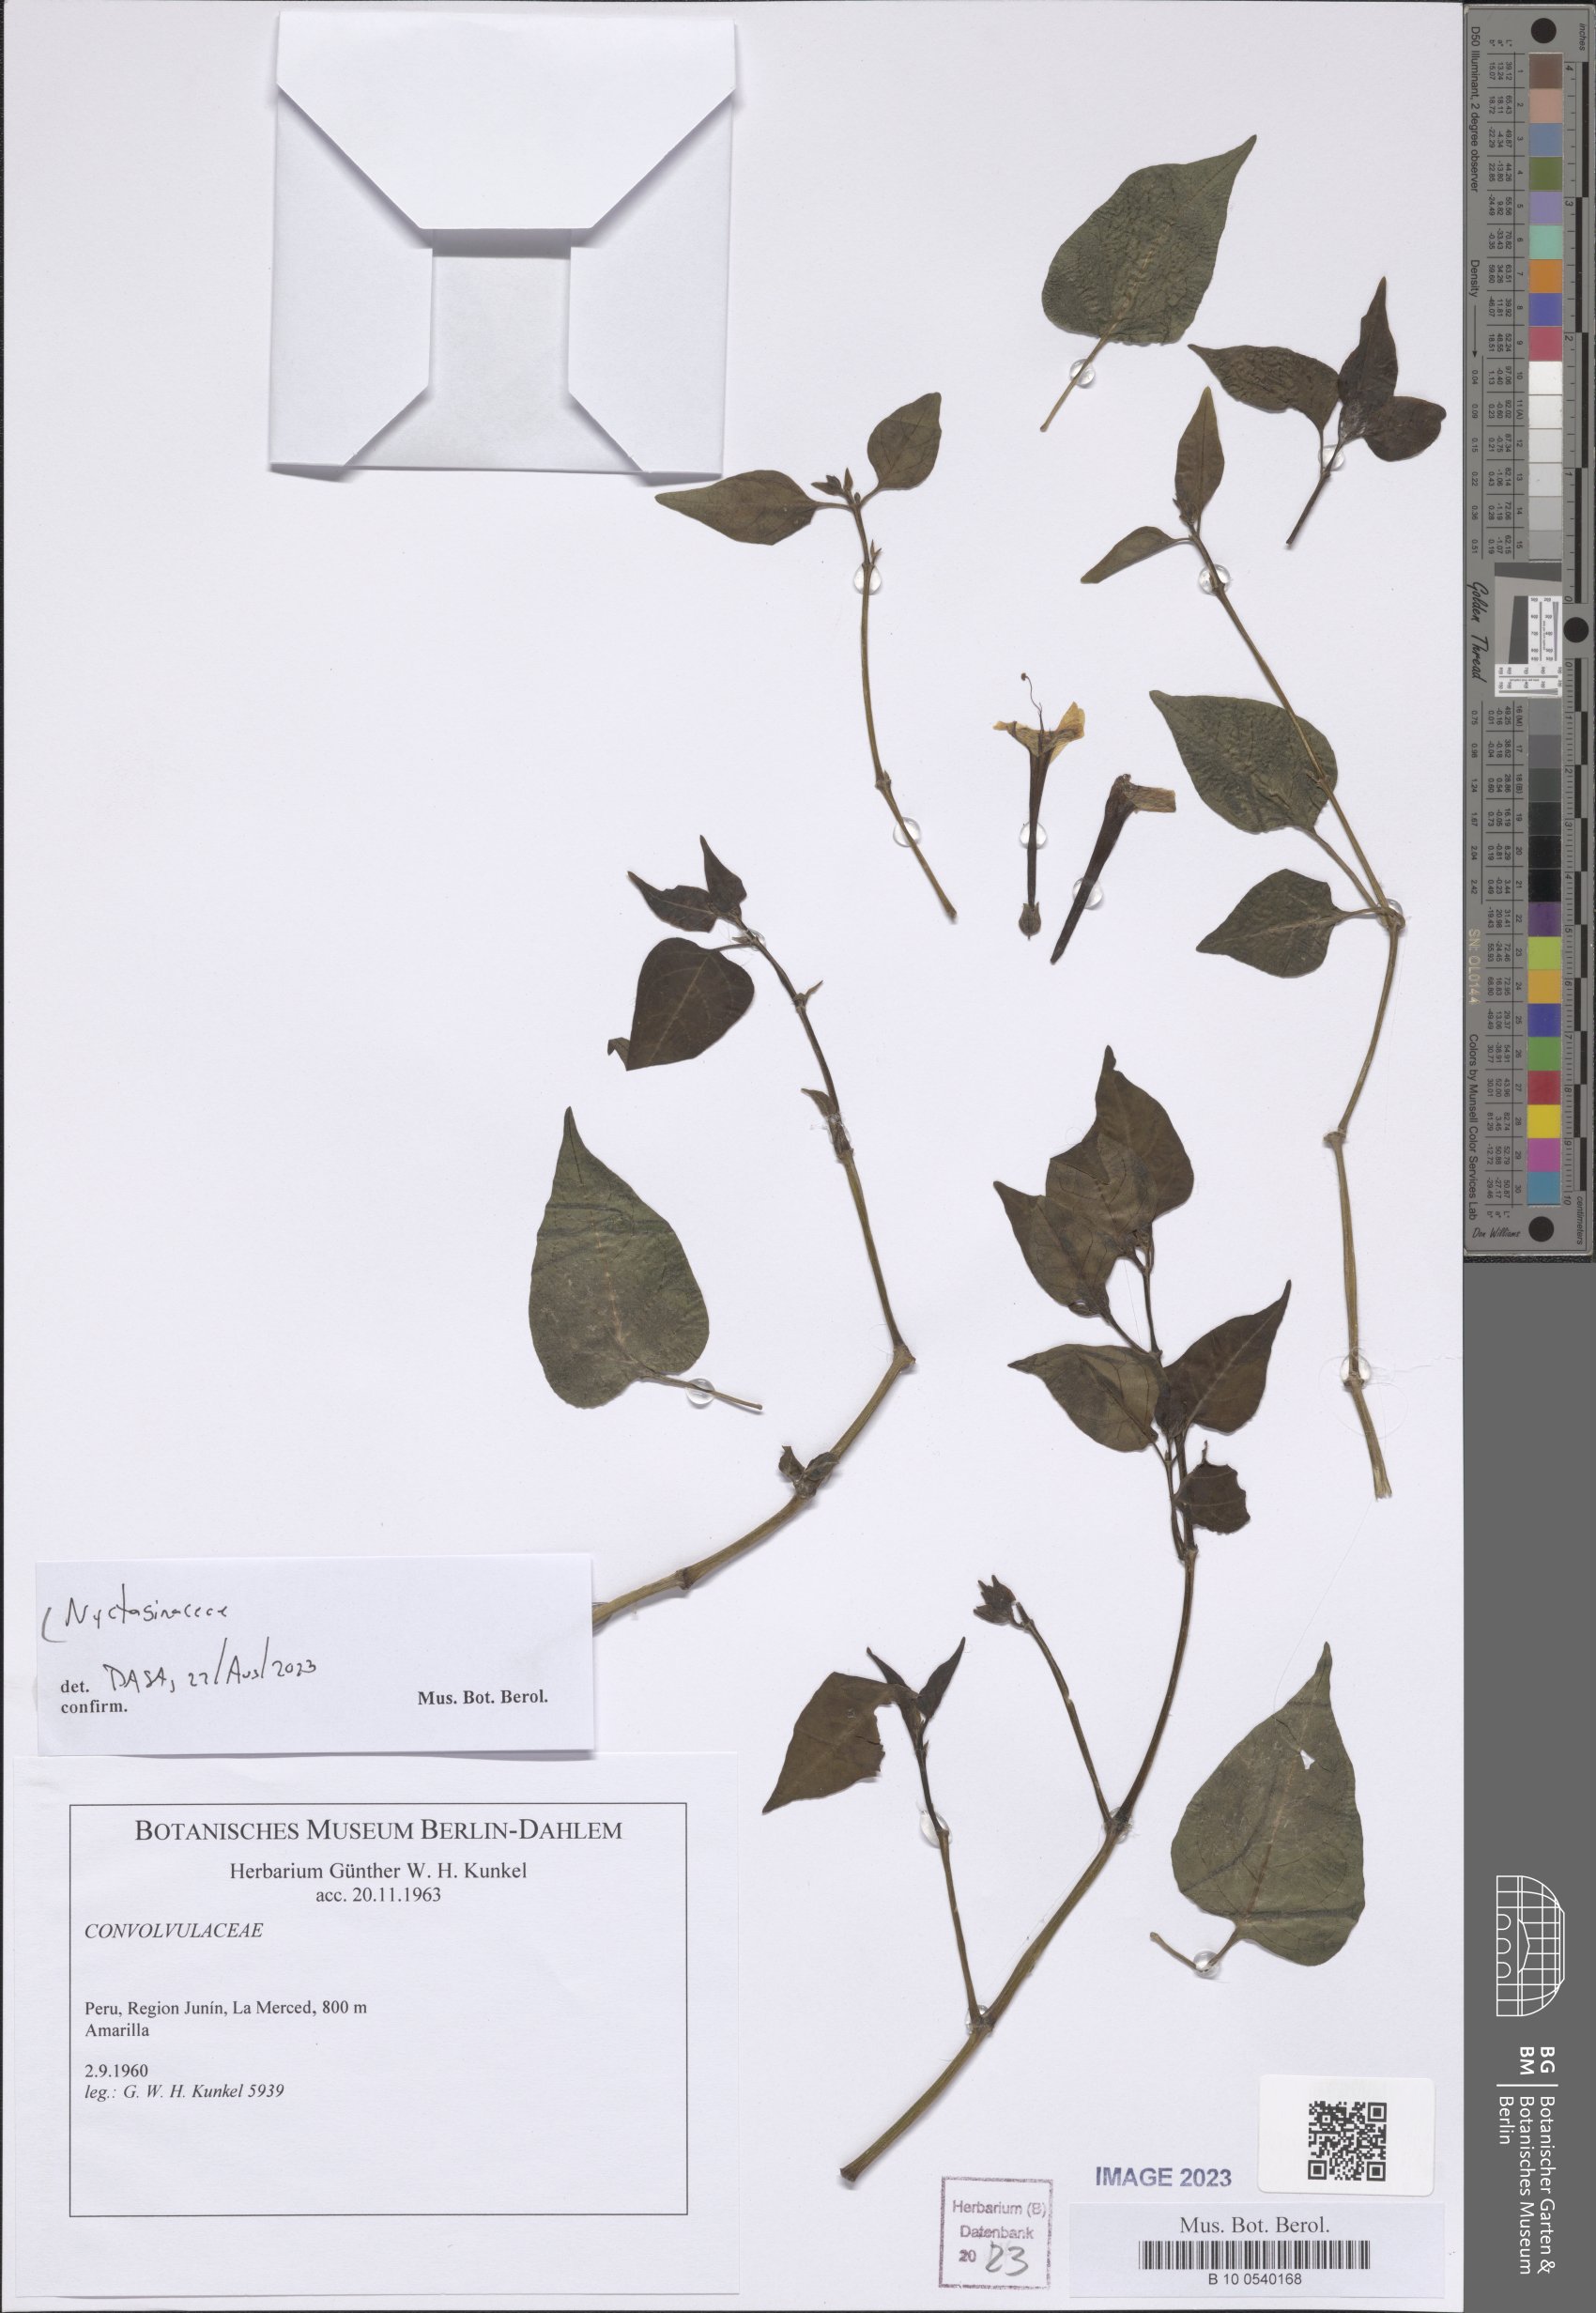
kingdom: Plantae
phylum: Tracheophyta
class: Magnoliopsida
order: Caryophyllales
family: Nyctaginaceae
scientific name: Nyctaginaceae
